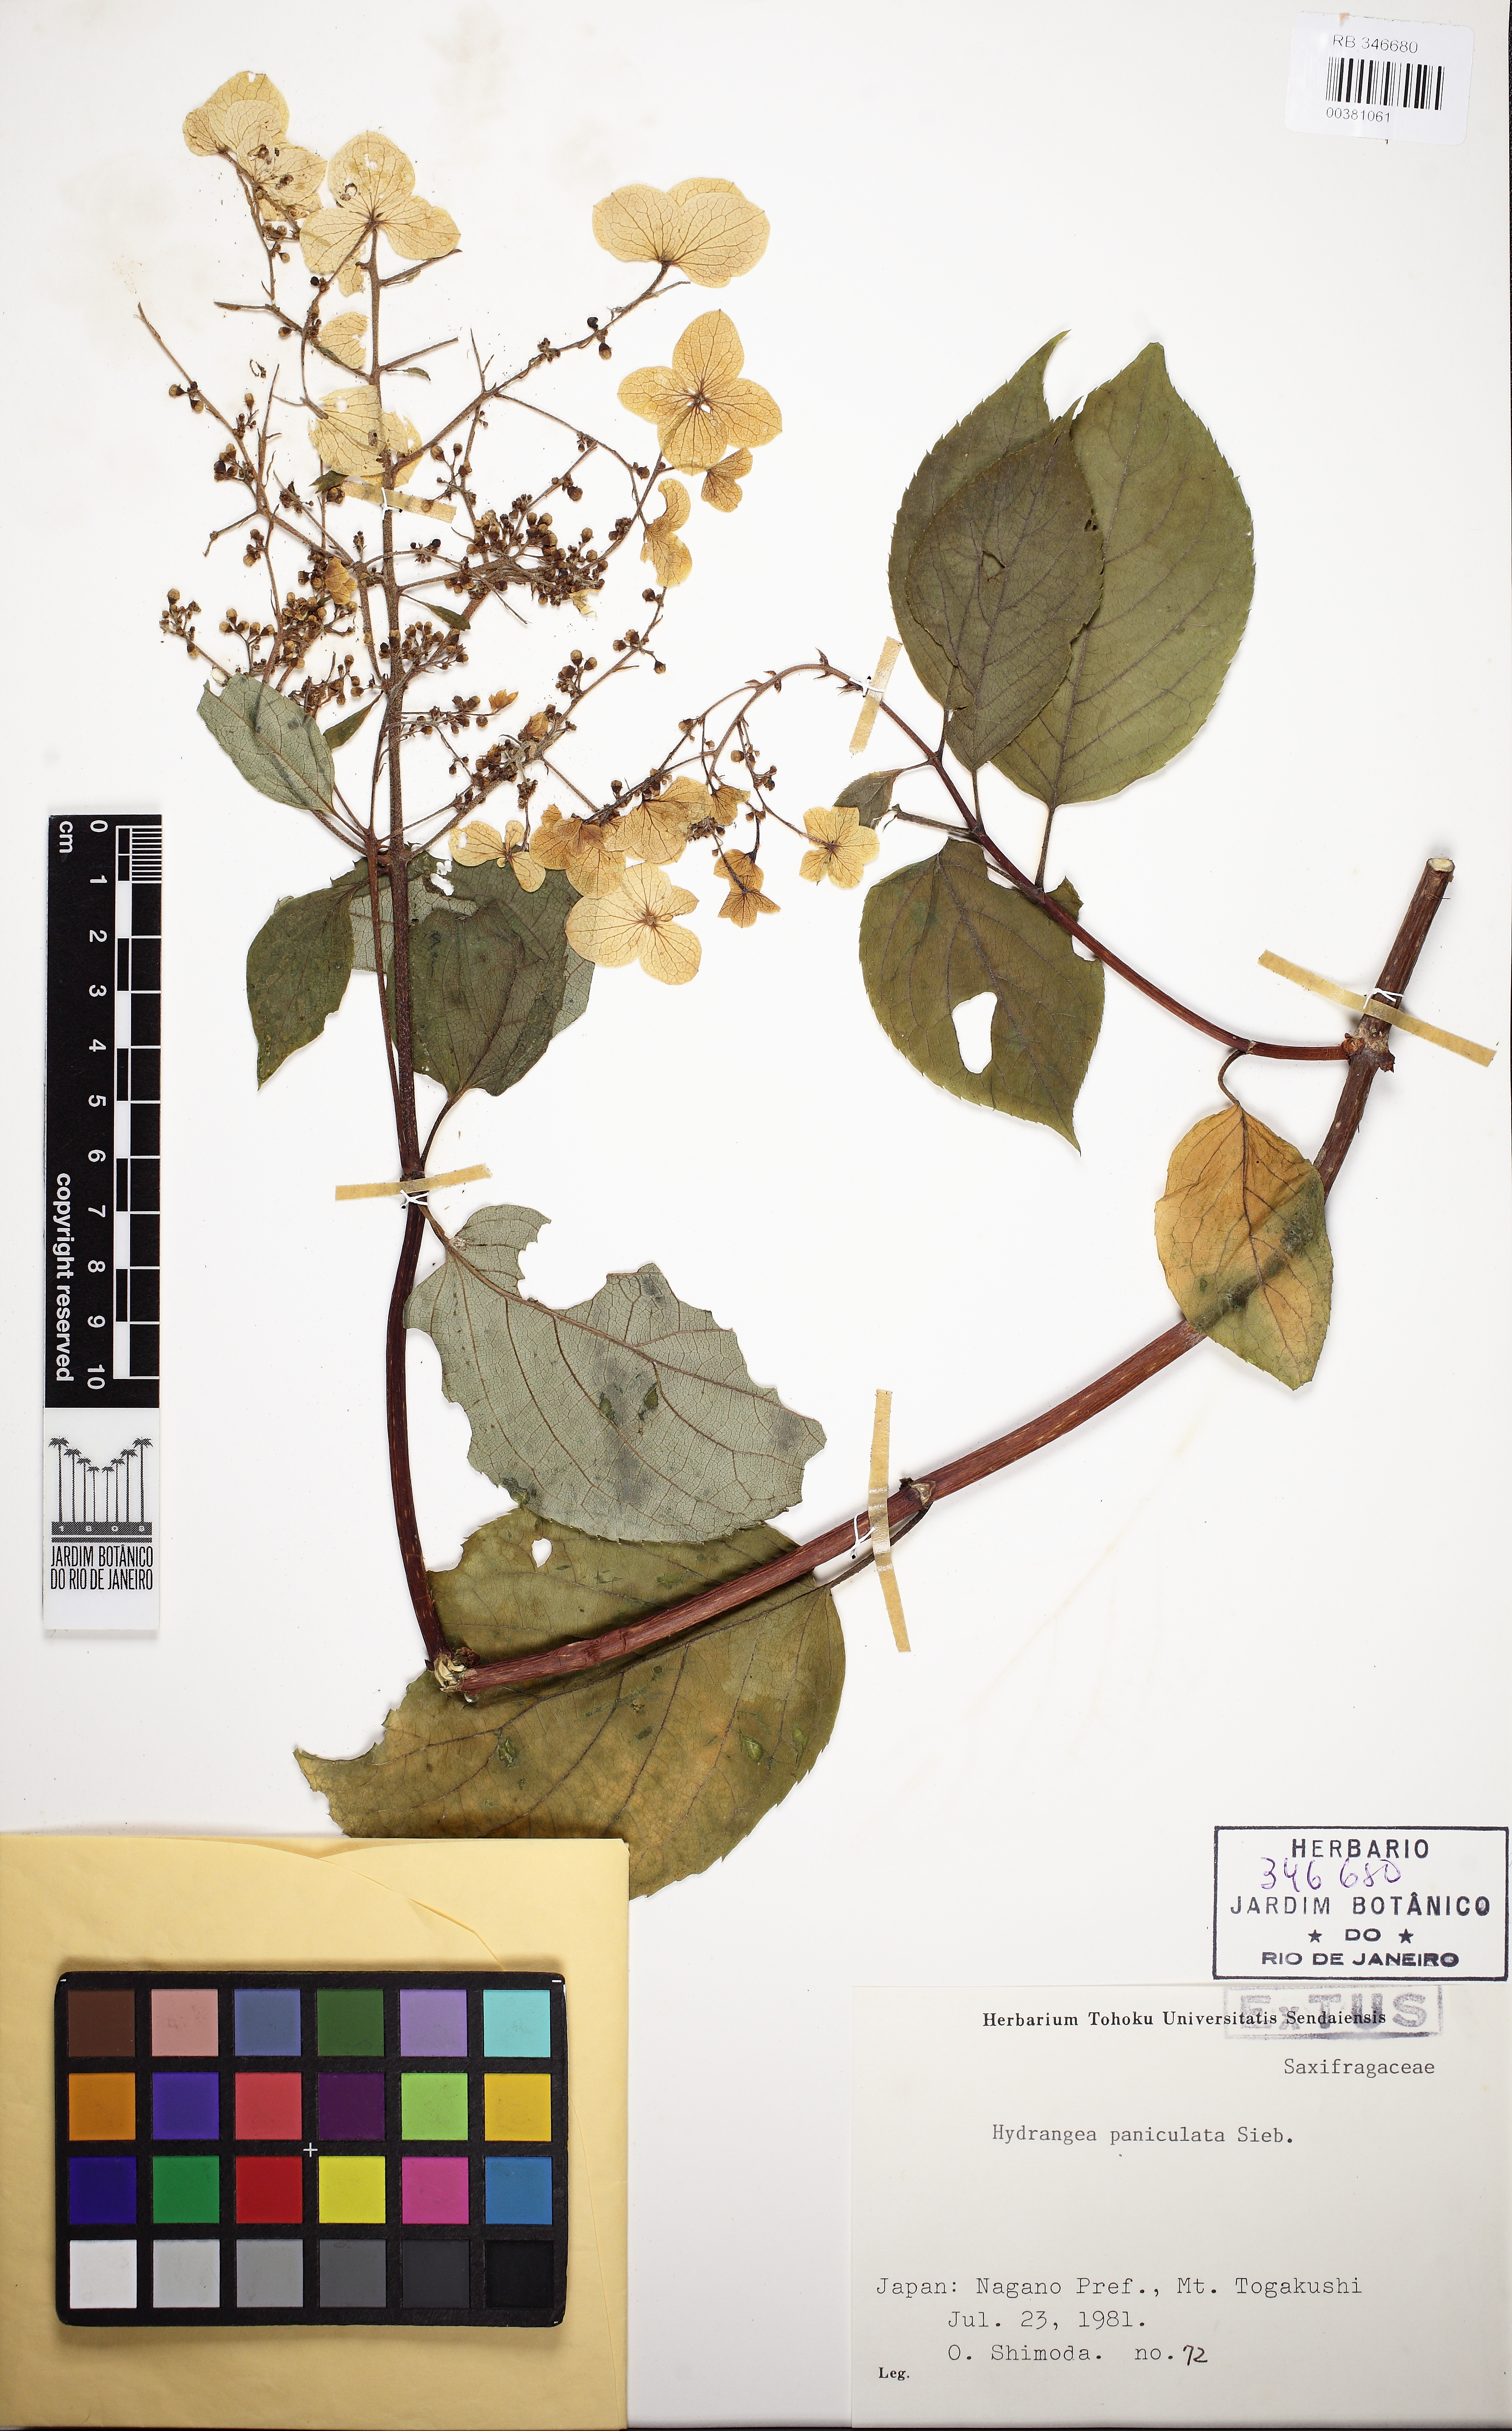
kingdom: Plantae
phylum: Tracheophyta
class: Magnoliopsida
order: Cornales
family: Hydrangeaceae
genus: Hydrangea
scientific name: Hydrangea paniculata
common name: Panicled hydrangea
